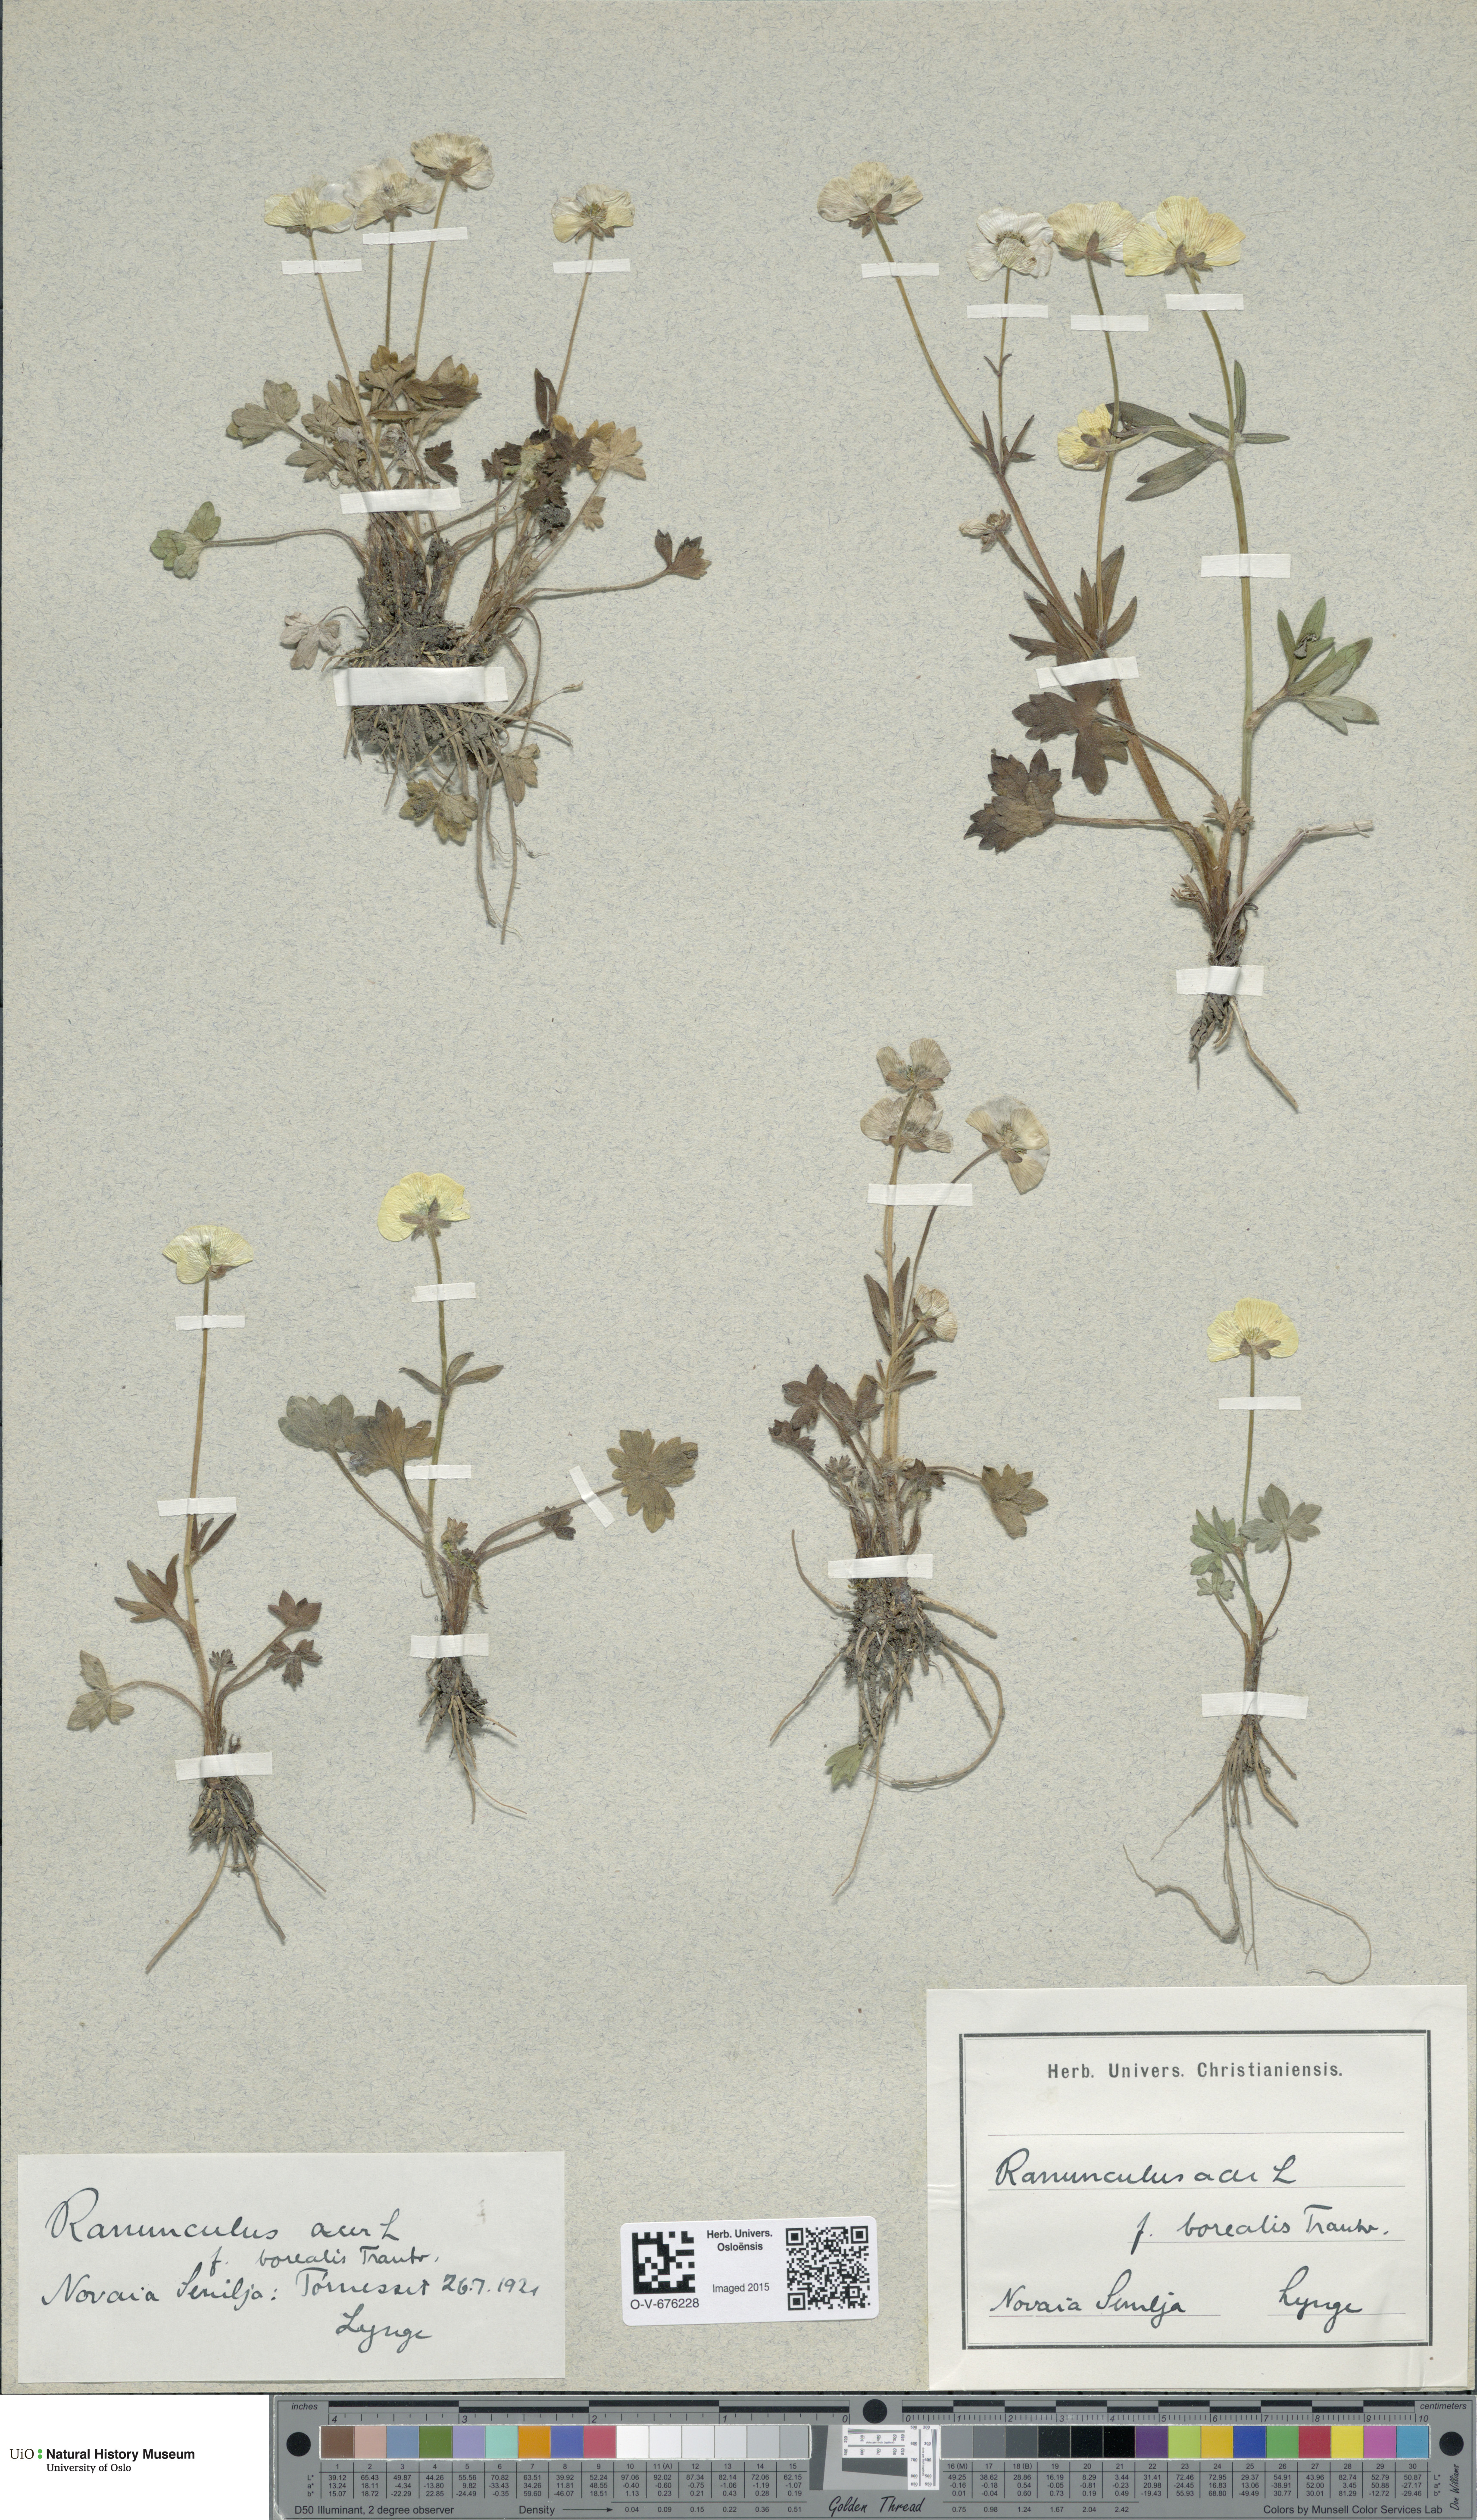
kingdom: Plantae
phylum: Tracheophyta
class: Magnoliopsida
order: Ranunculales
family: Ranunculaceae
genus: Ranunculus
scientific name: Ranunculus propinquus
